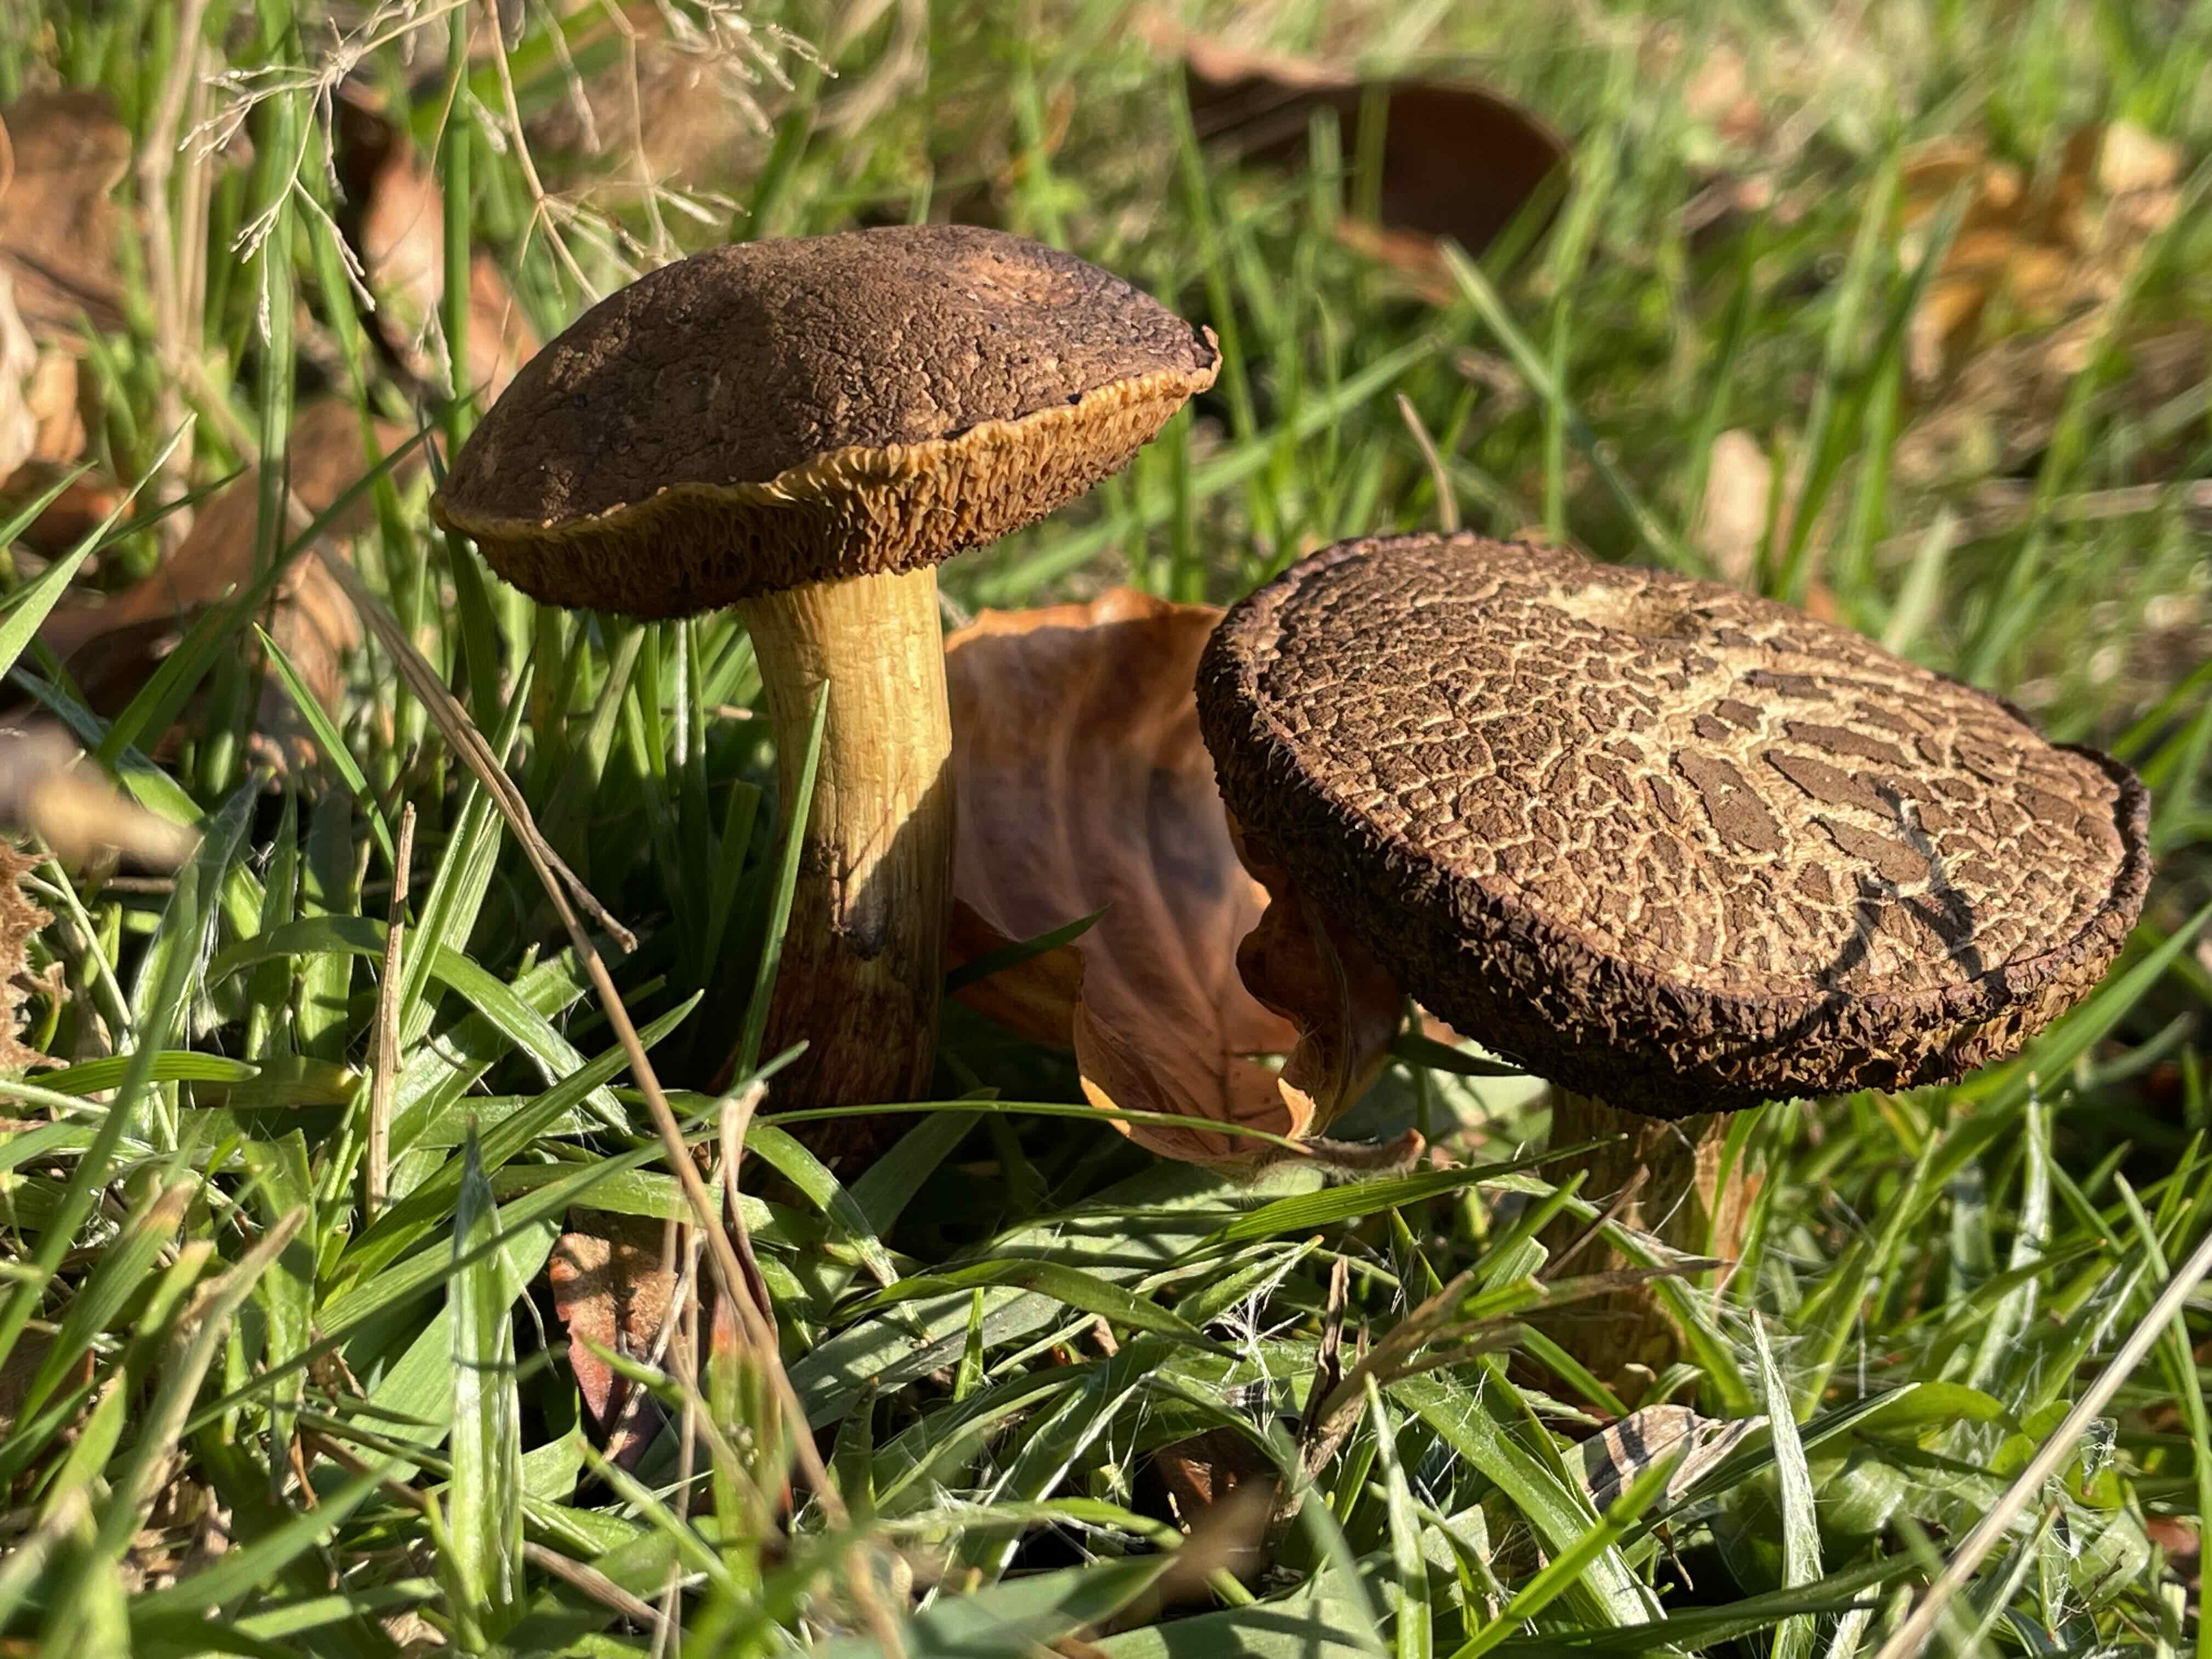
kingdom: Fungi
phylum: Basidiomycota
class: Agaricomycetes
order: Boletales
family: Boletaceae
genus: Xerocomellus
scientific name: Xerocomellus cisalpinus
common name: finsprukken rørhat
